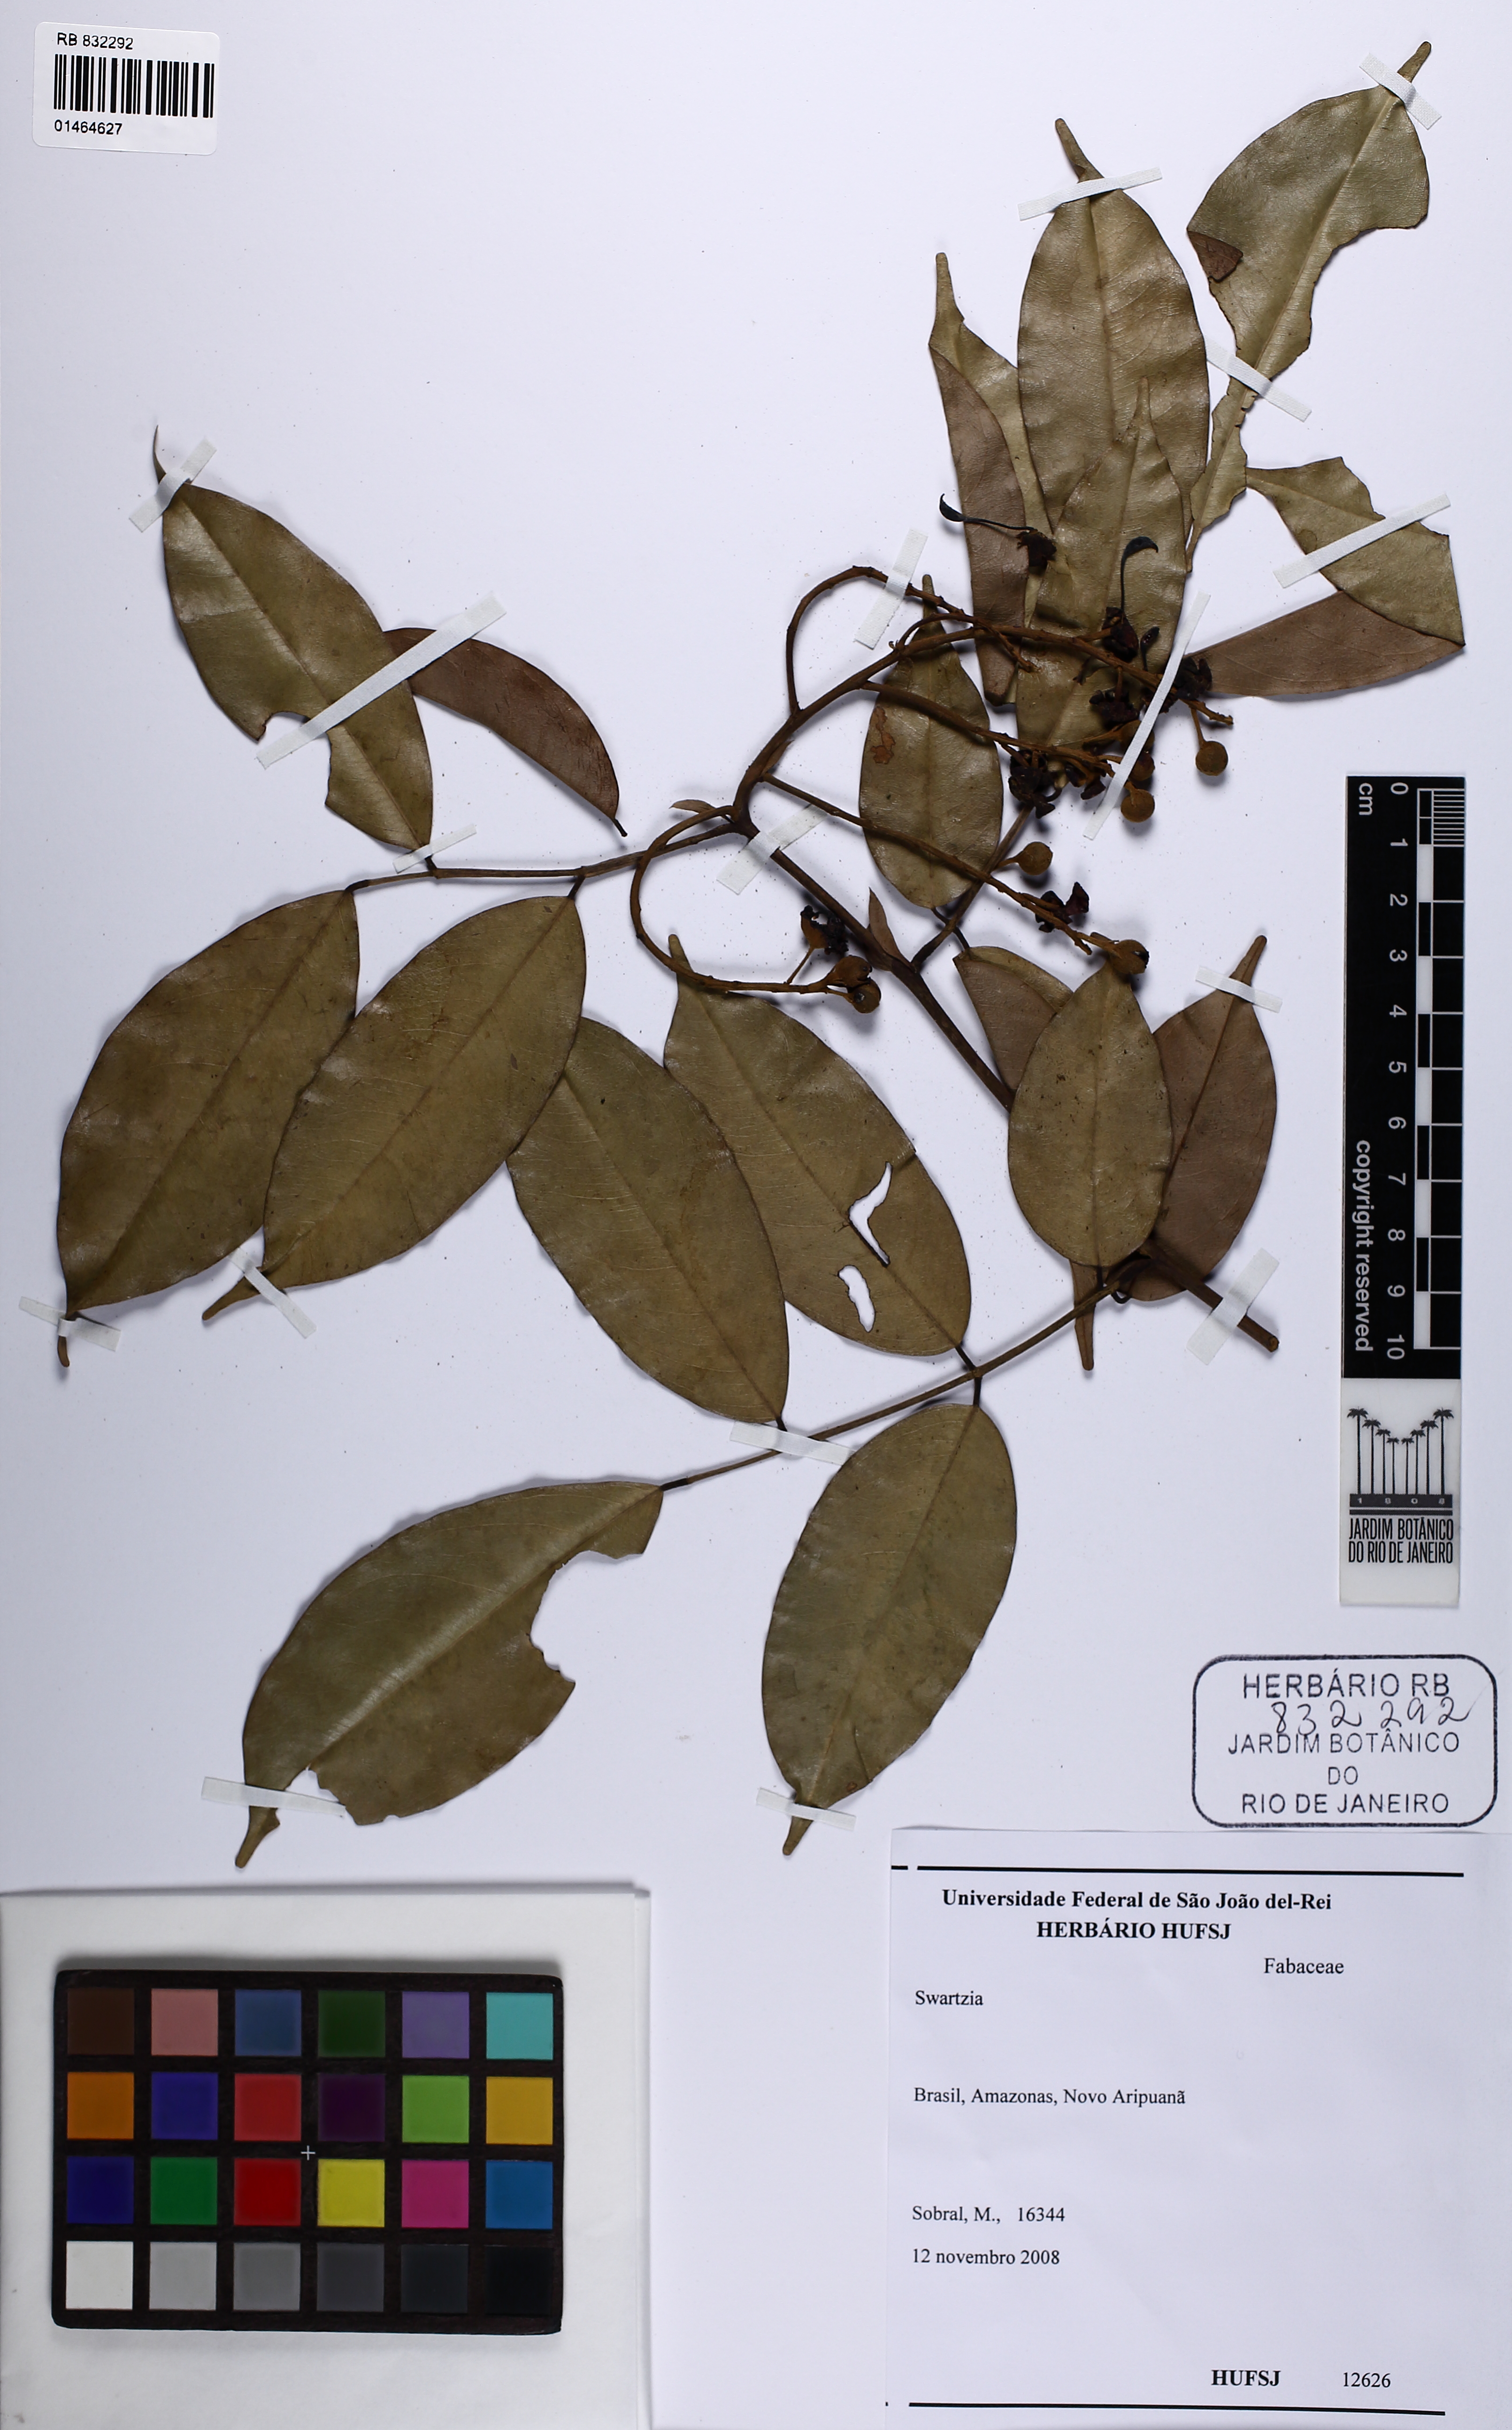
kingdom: Plantae
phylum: Tracheophyta
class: Magnoliopsida
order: Fabales
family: Fabaceae
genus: Swartzia
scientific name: Swartzia
